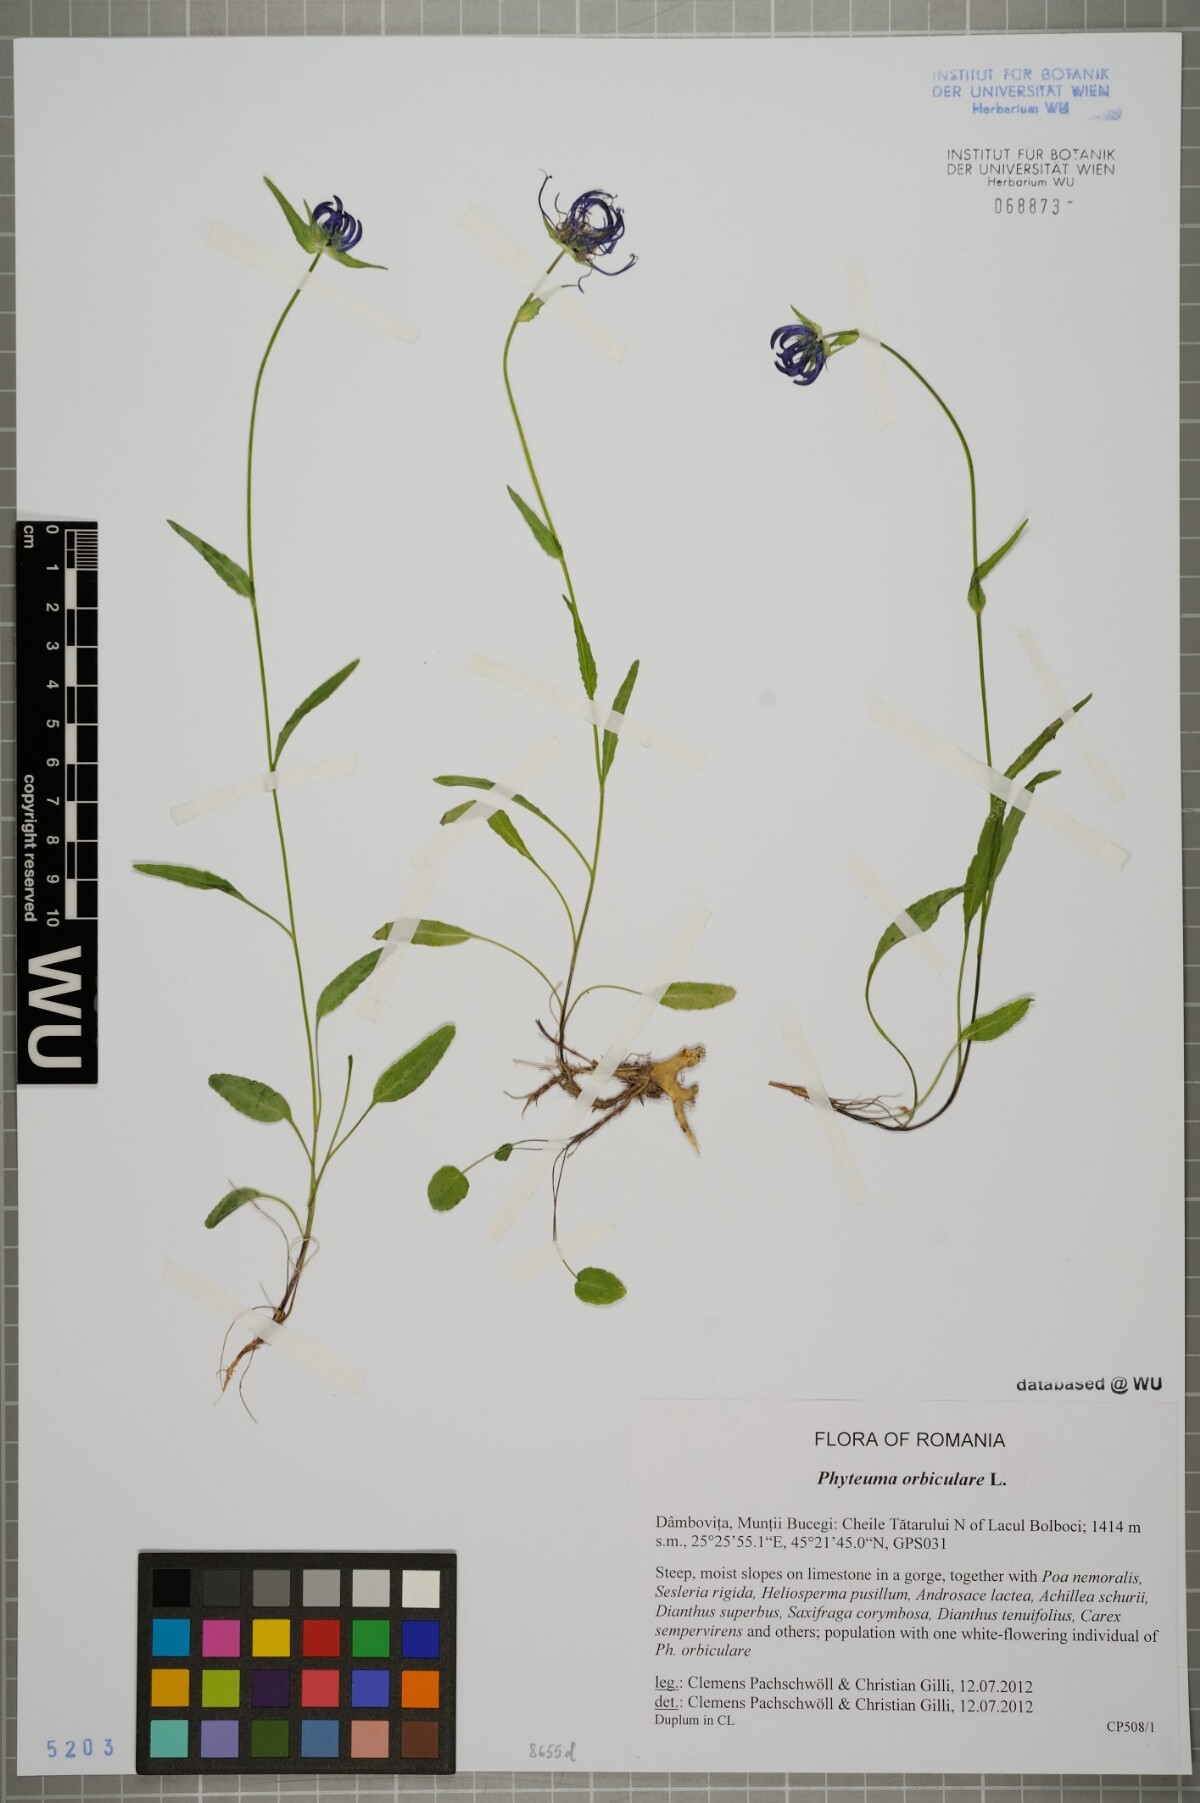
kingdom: Plantae
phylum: Tracheophyta
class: Magnoliopsida
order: Asterales
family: Campanulaceae
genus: Phyteuma
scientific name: Phyteuma orbiculare
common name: Round-headed rampion
